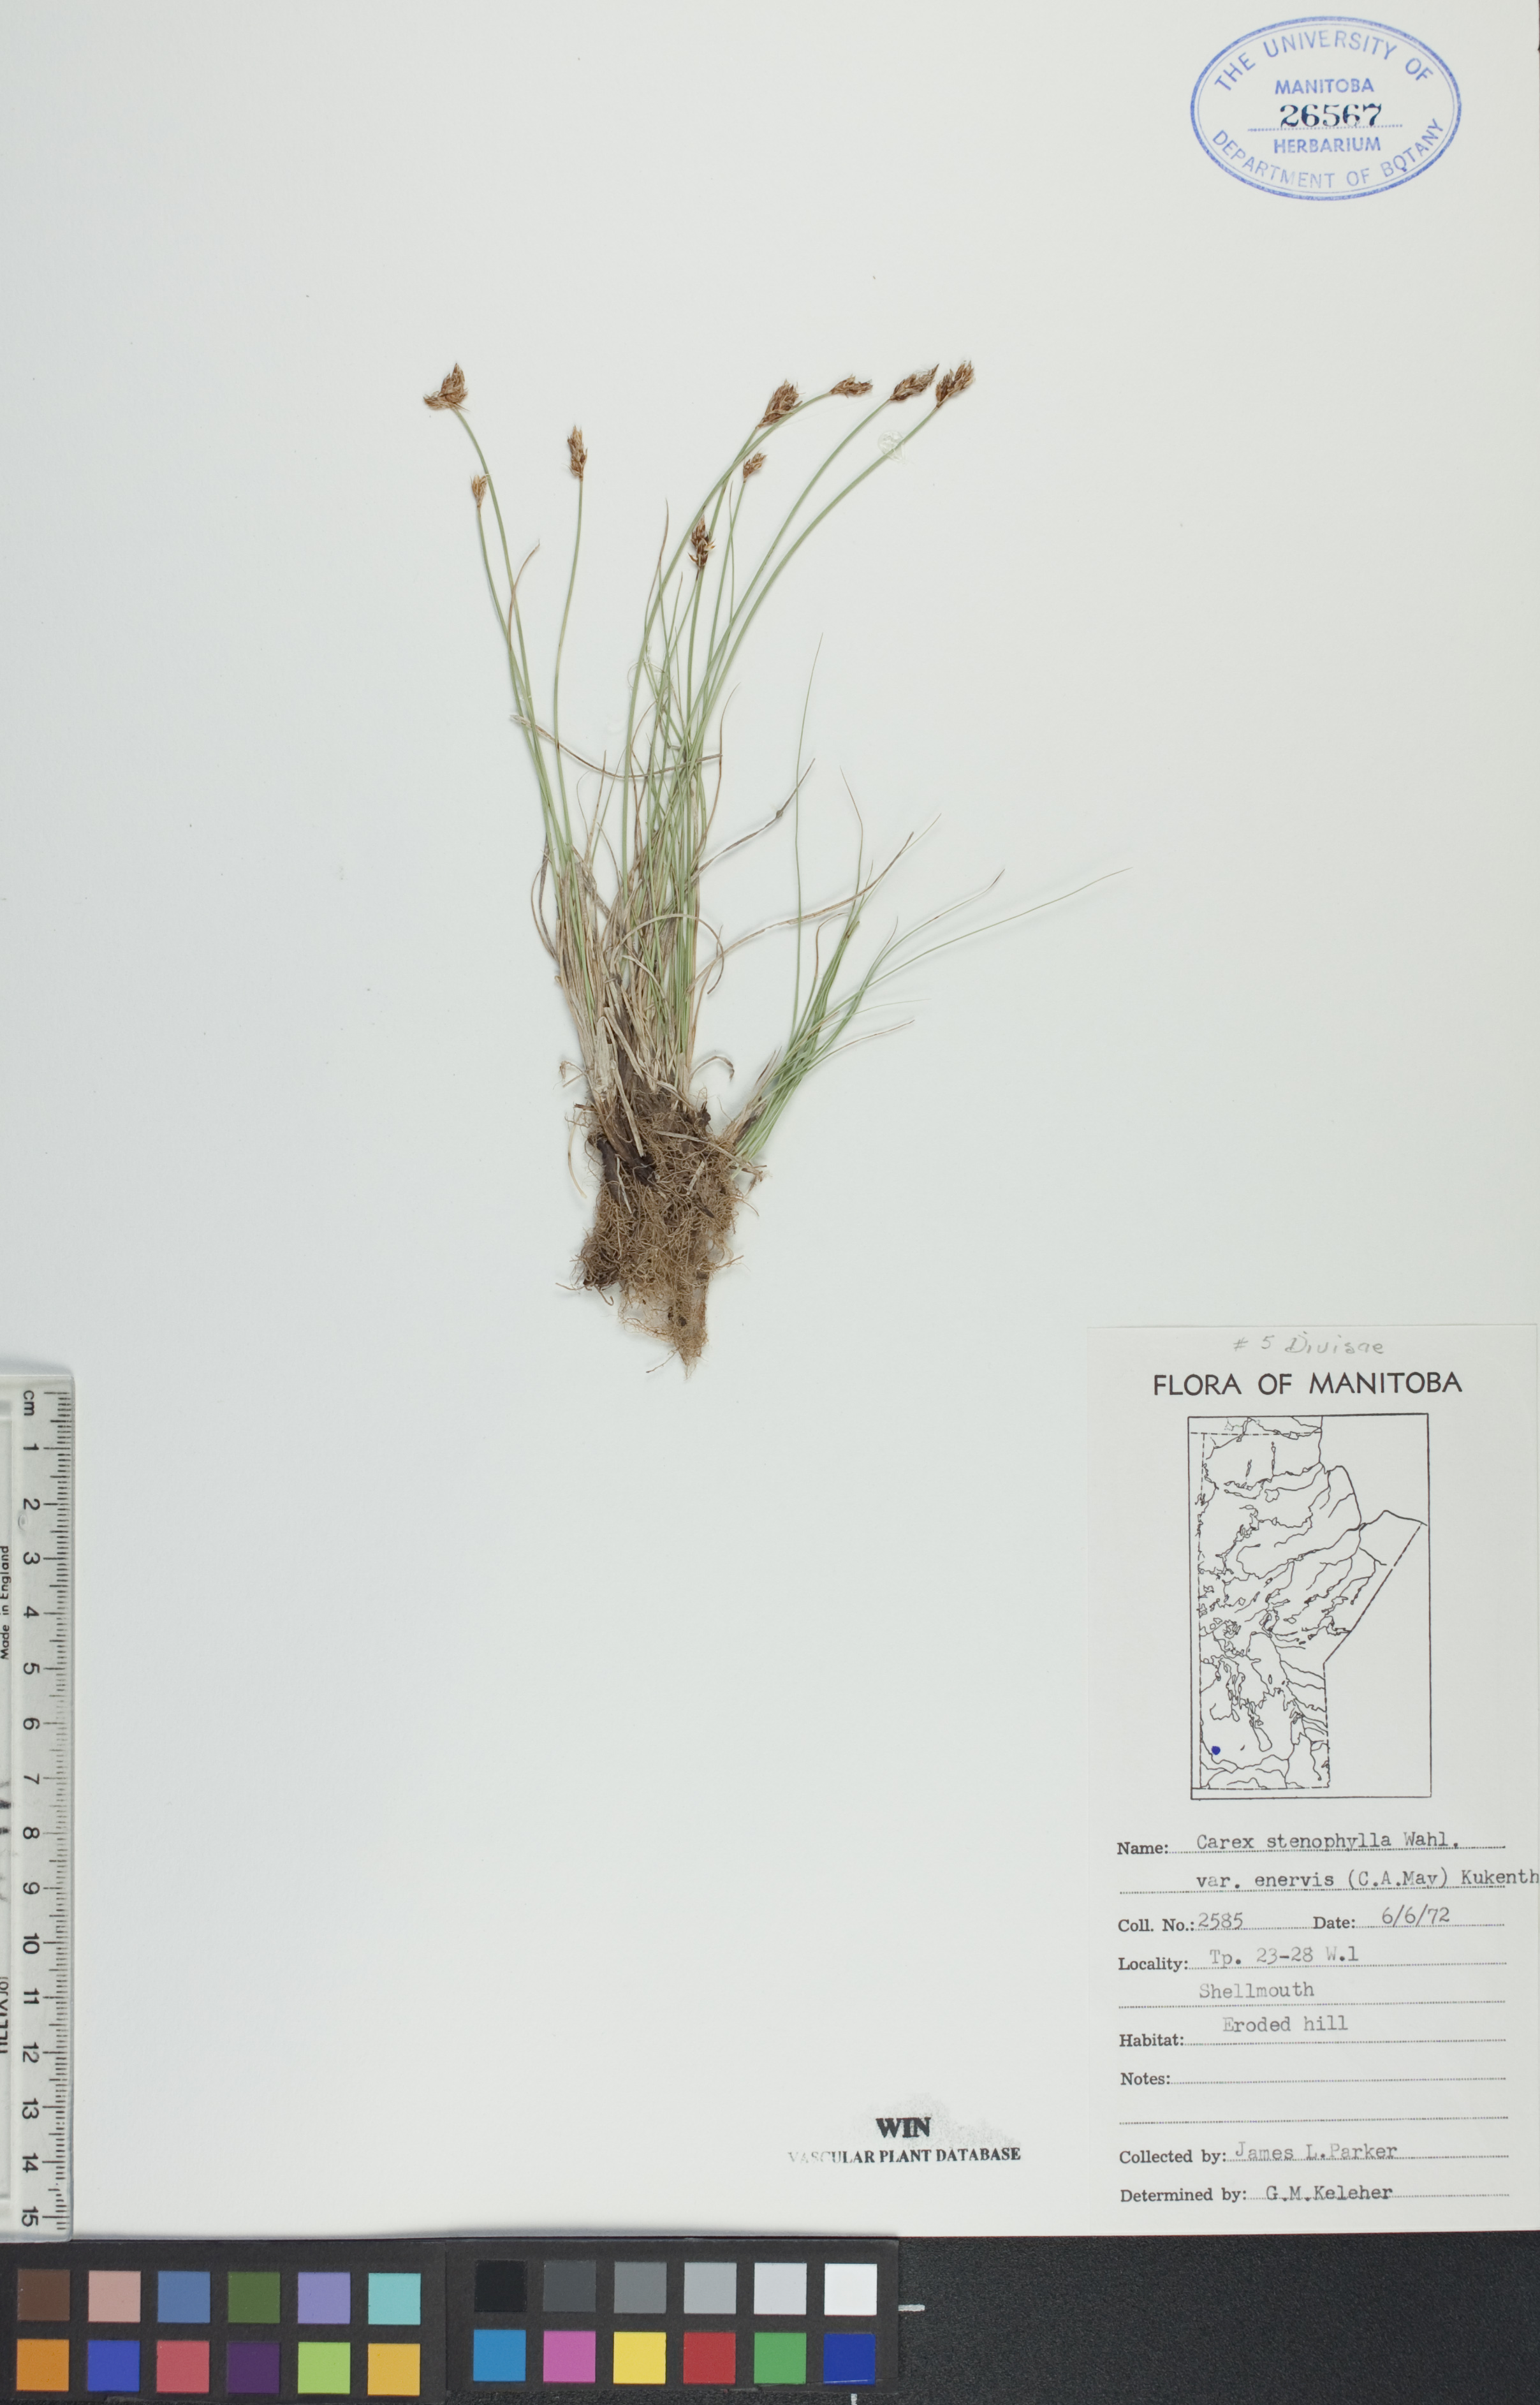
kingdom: Plantae
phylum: Tracheophyta
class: Liliopsida
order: Poales
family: Cyperaceae
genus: Carex
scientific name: Carex enervis
